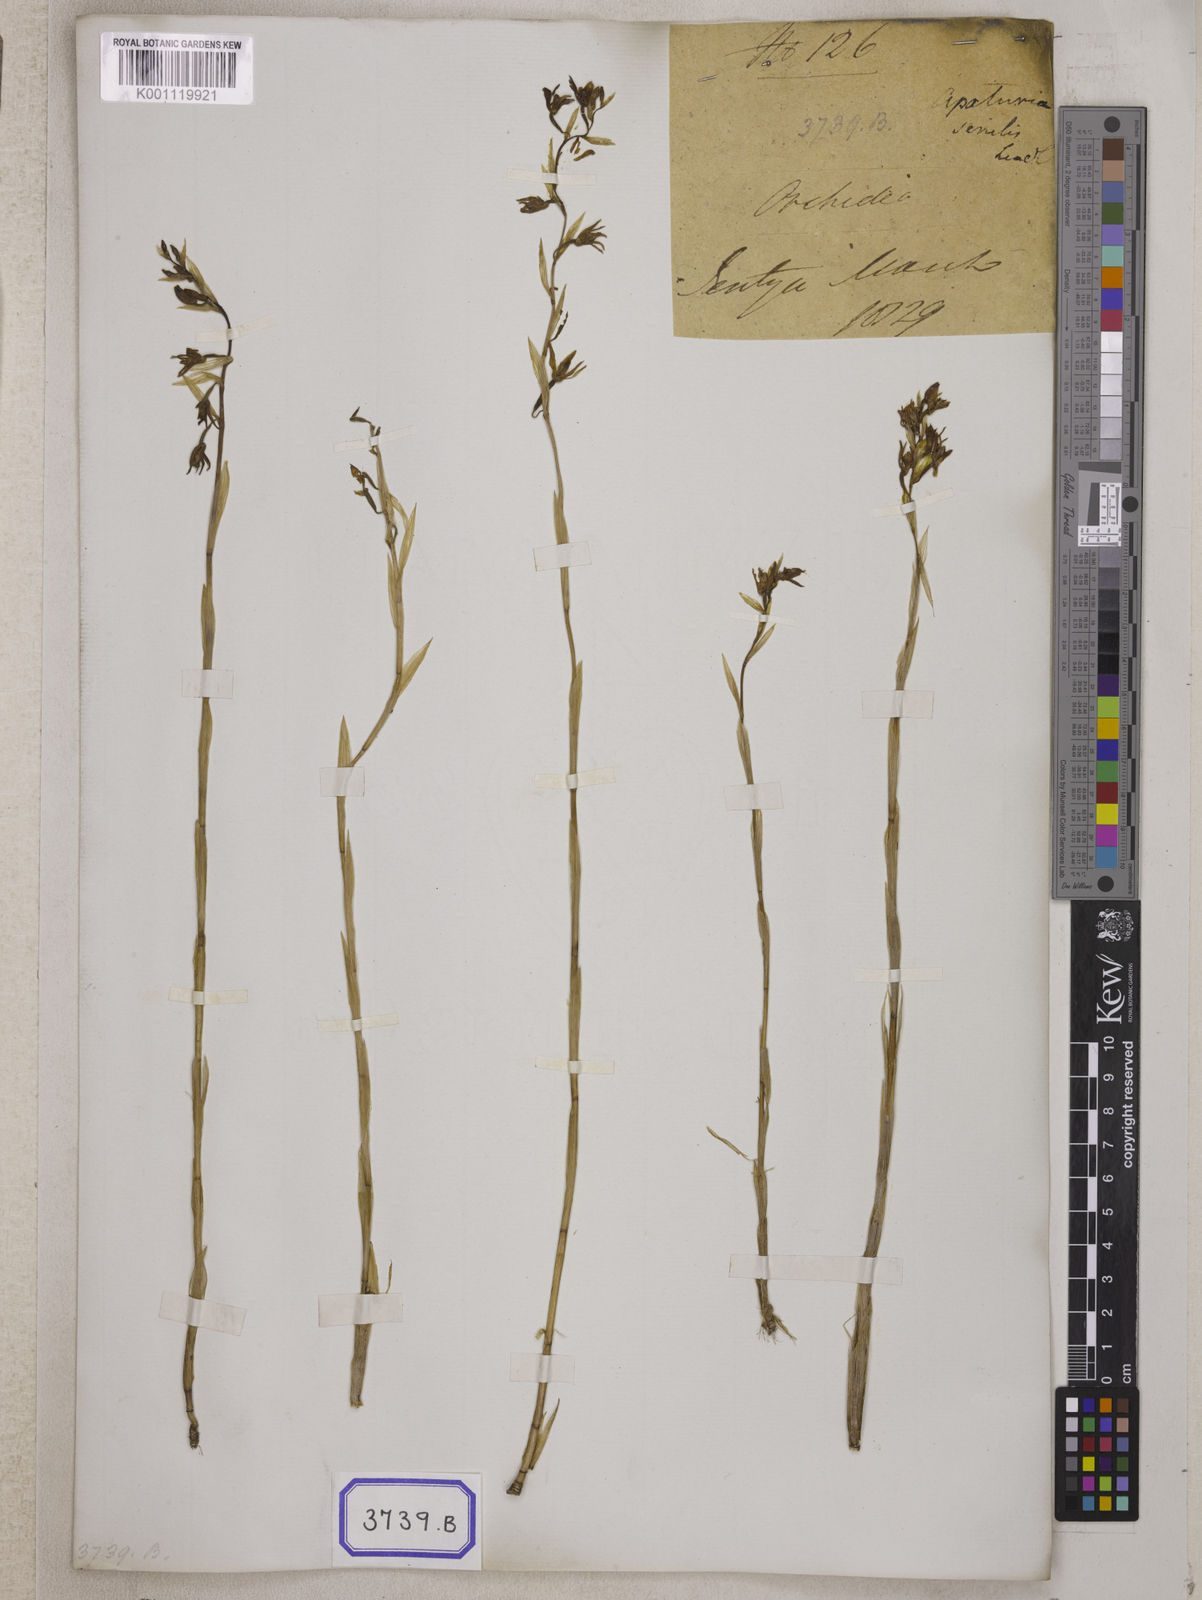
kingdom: Plantae
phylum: Tracheophyta
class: Liliopsida
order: Asparagales
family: Orchidaceae
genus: Pachystoma
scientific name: Pachystoma pubescens
